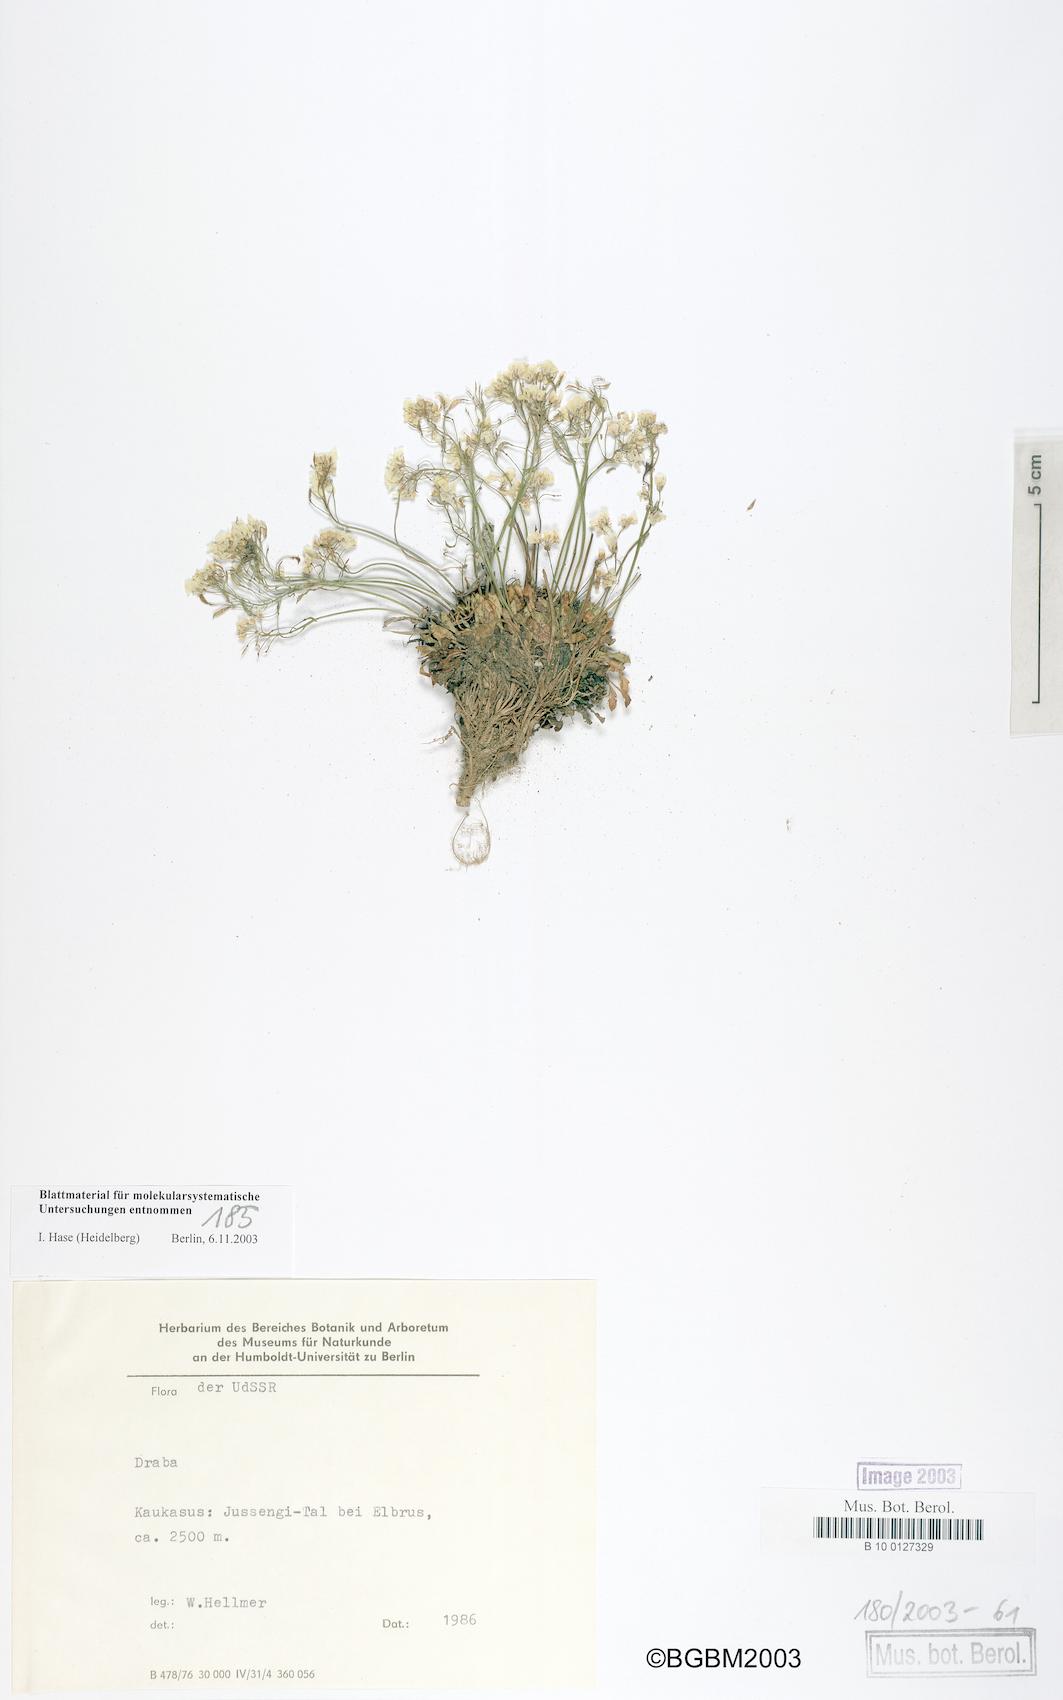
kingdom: Plantae
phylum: Tracheophyta
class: Magnoliopsida
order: Brassicales
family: Brassicaceae
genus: Draba
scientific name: Draba
